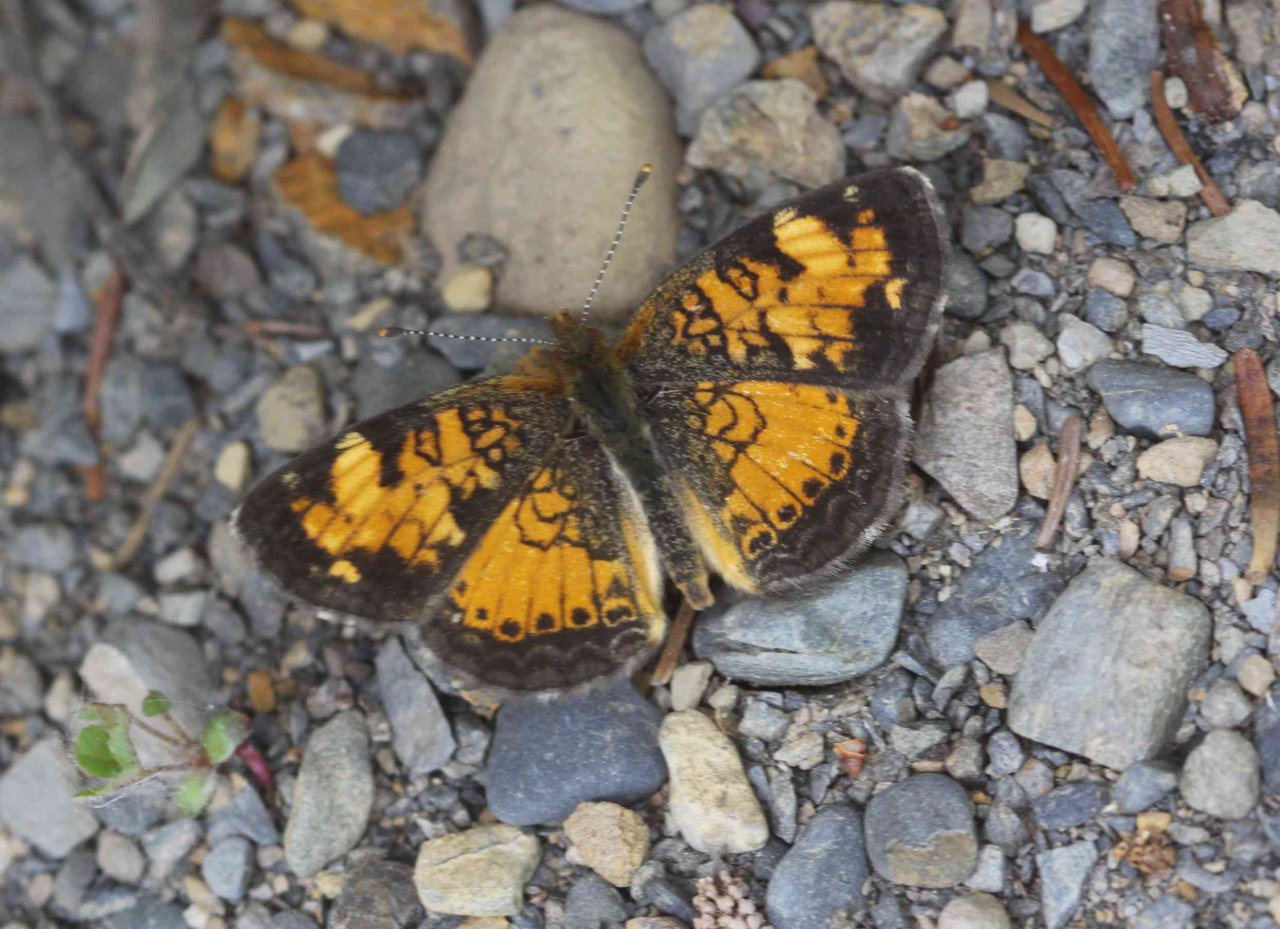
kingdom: Animalia
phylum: Arthropoda
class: Insecta
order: Lepidoptera
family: Nymphalidae
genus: Phyciodes
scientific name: Phyciodes tharos
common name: Northern Crescent
